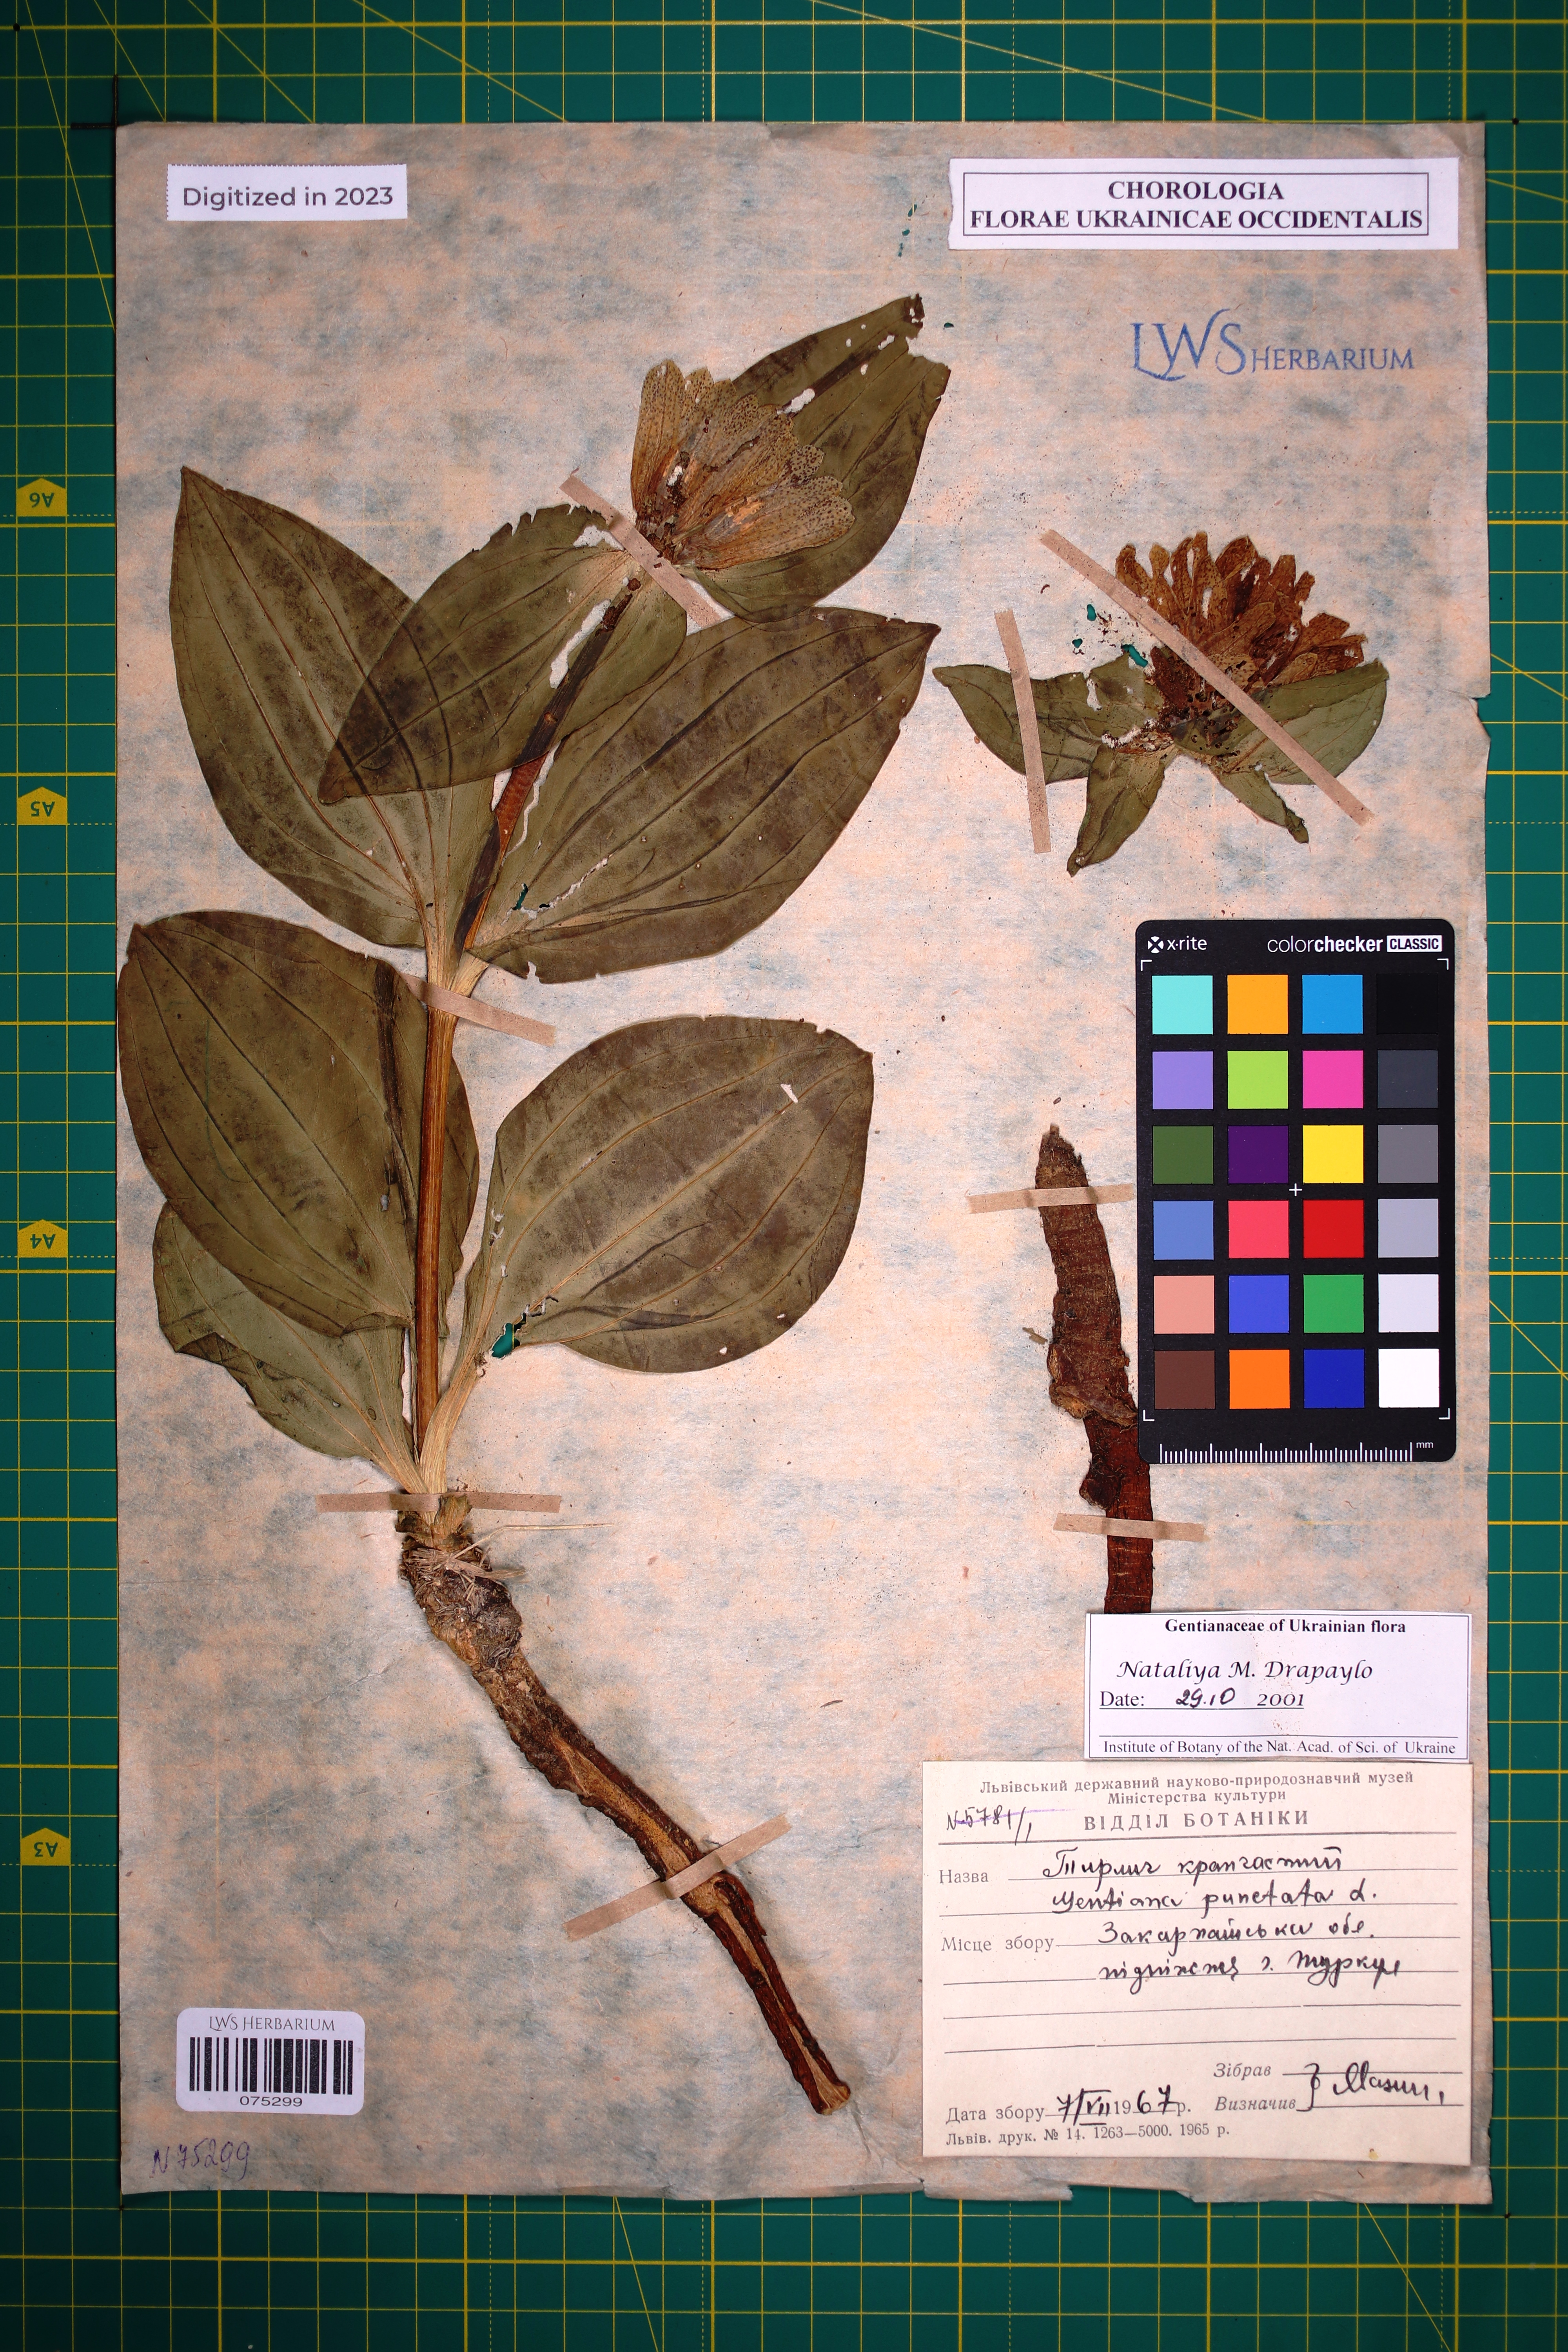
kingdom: Plantae
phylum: Tracheophyta
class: Magnoliopsida
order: Gentianales
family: Gentianaceae
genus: Gentiana
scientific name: Gentiana punctata
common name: Spotted gentian
